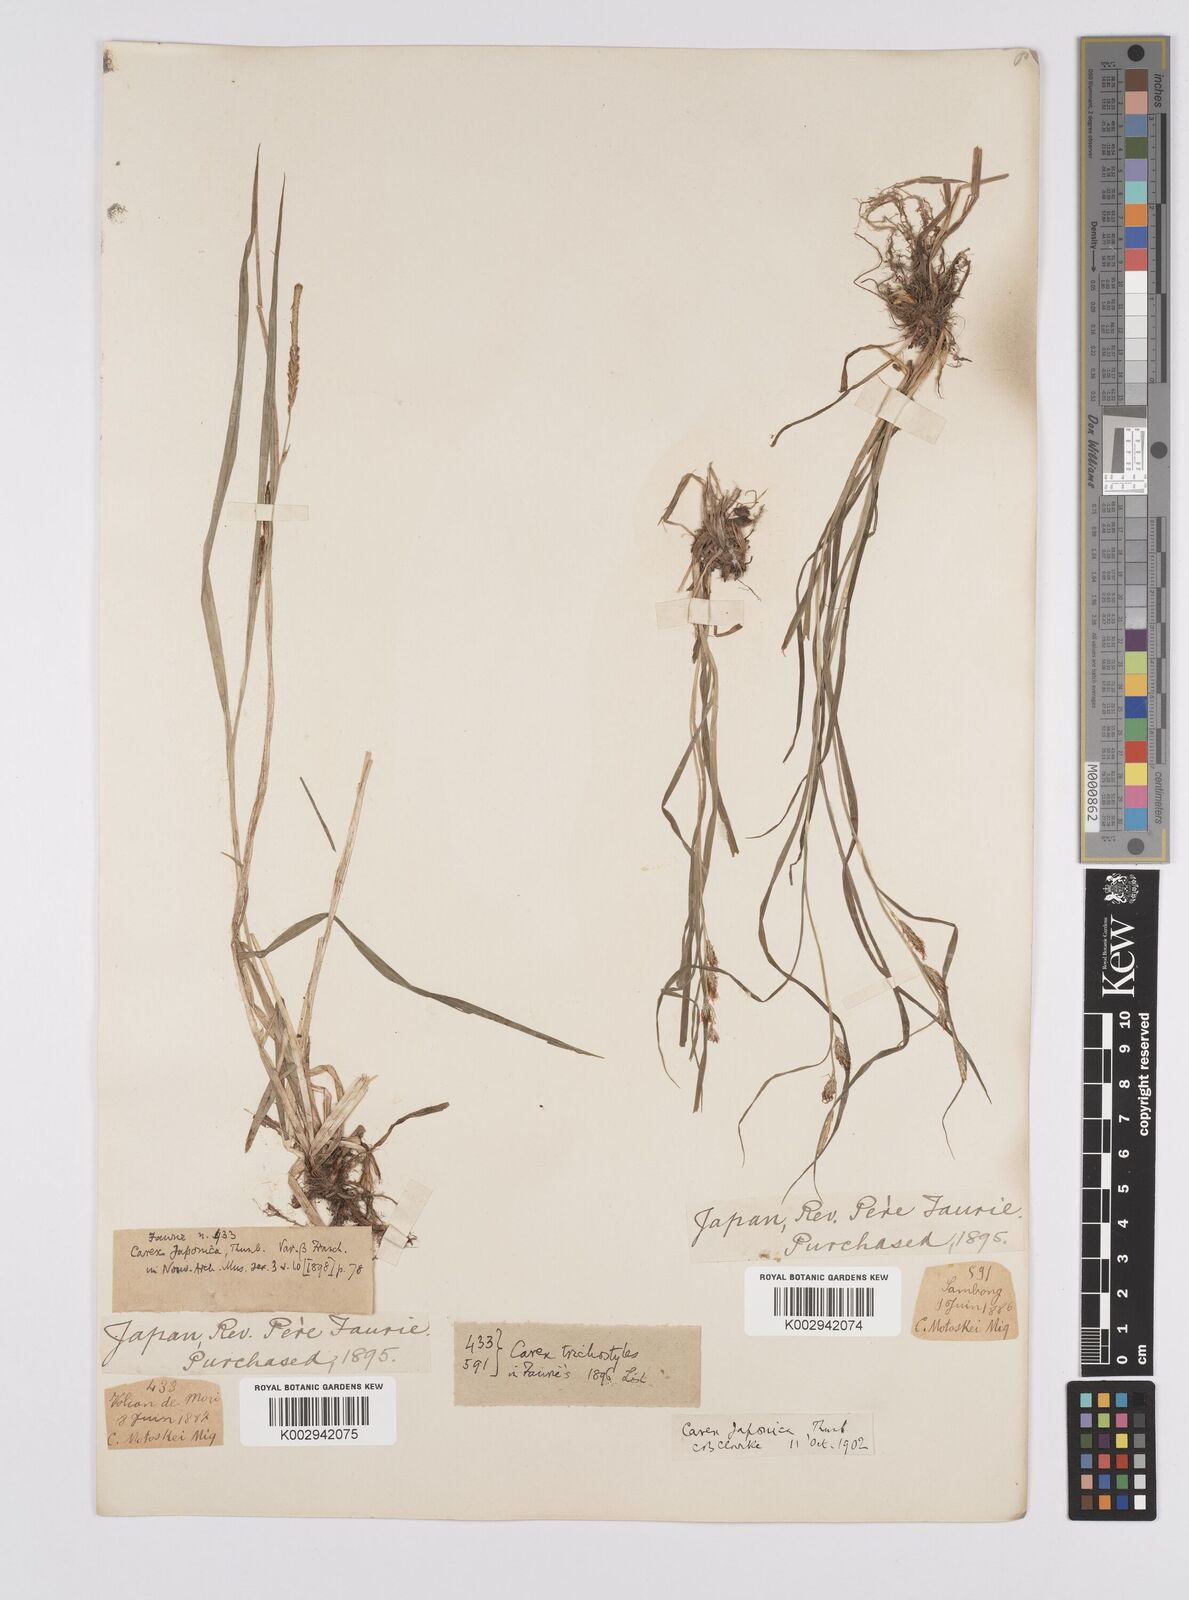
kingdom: Plantae
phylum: Tracheophyta
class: Liliopsida
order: Poales
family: Cyperaceae
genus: Carex
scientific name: Carex japonica
